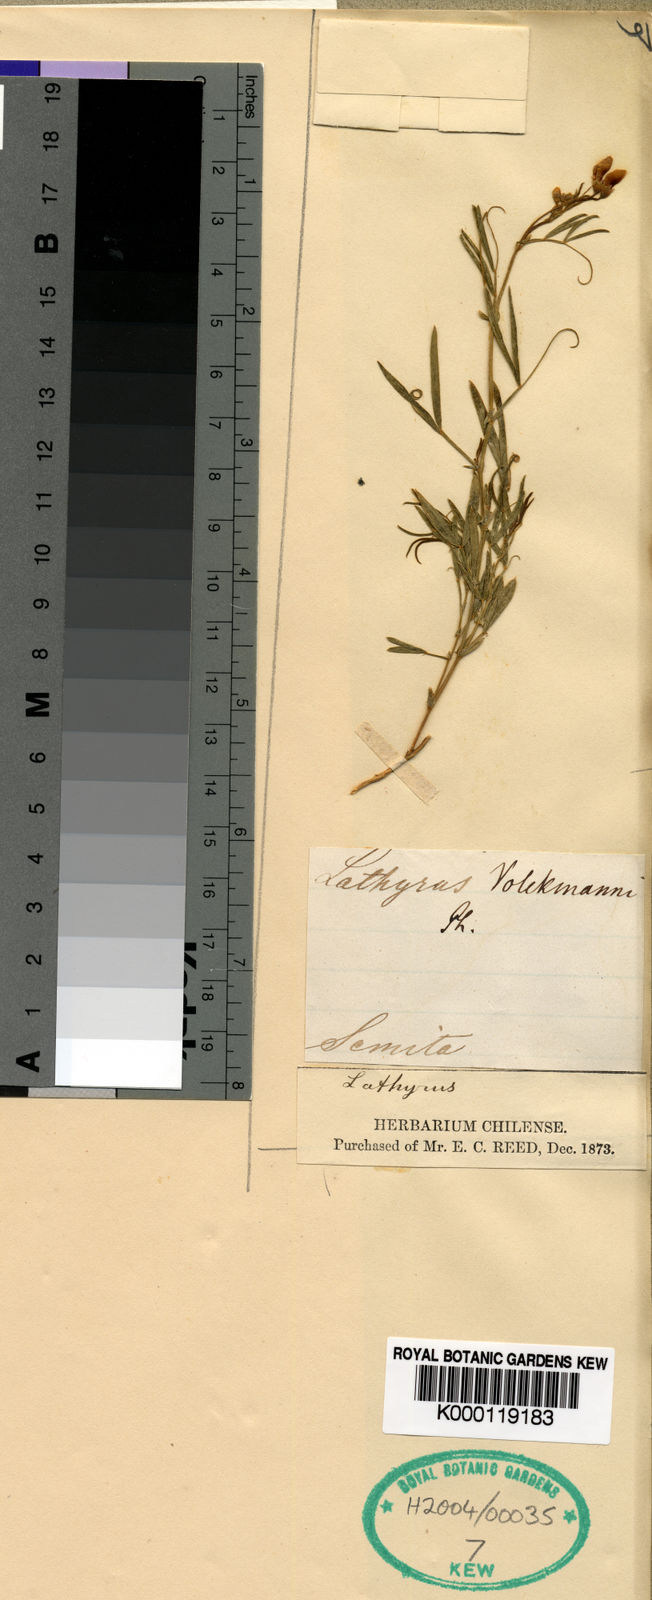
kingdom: Plantae
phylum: Tracheophyta
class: Magnoliopsida
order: Fabales
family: Fabaceae
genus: Lathyrus
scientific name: Lathyrus volckmannii
